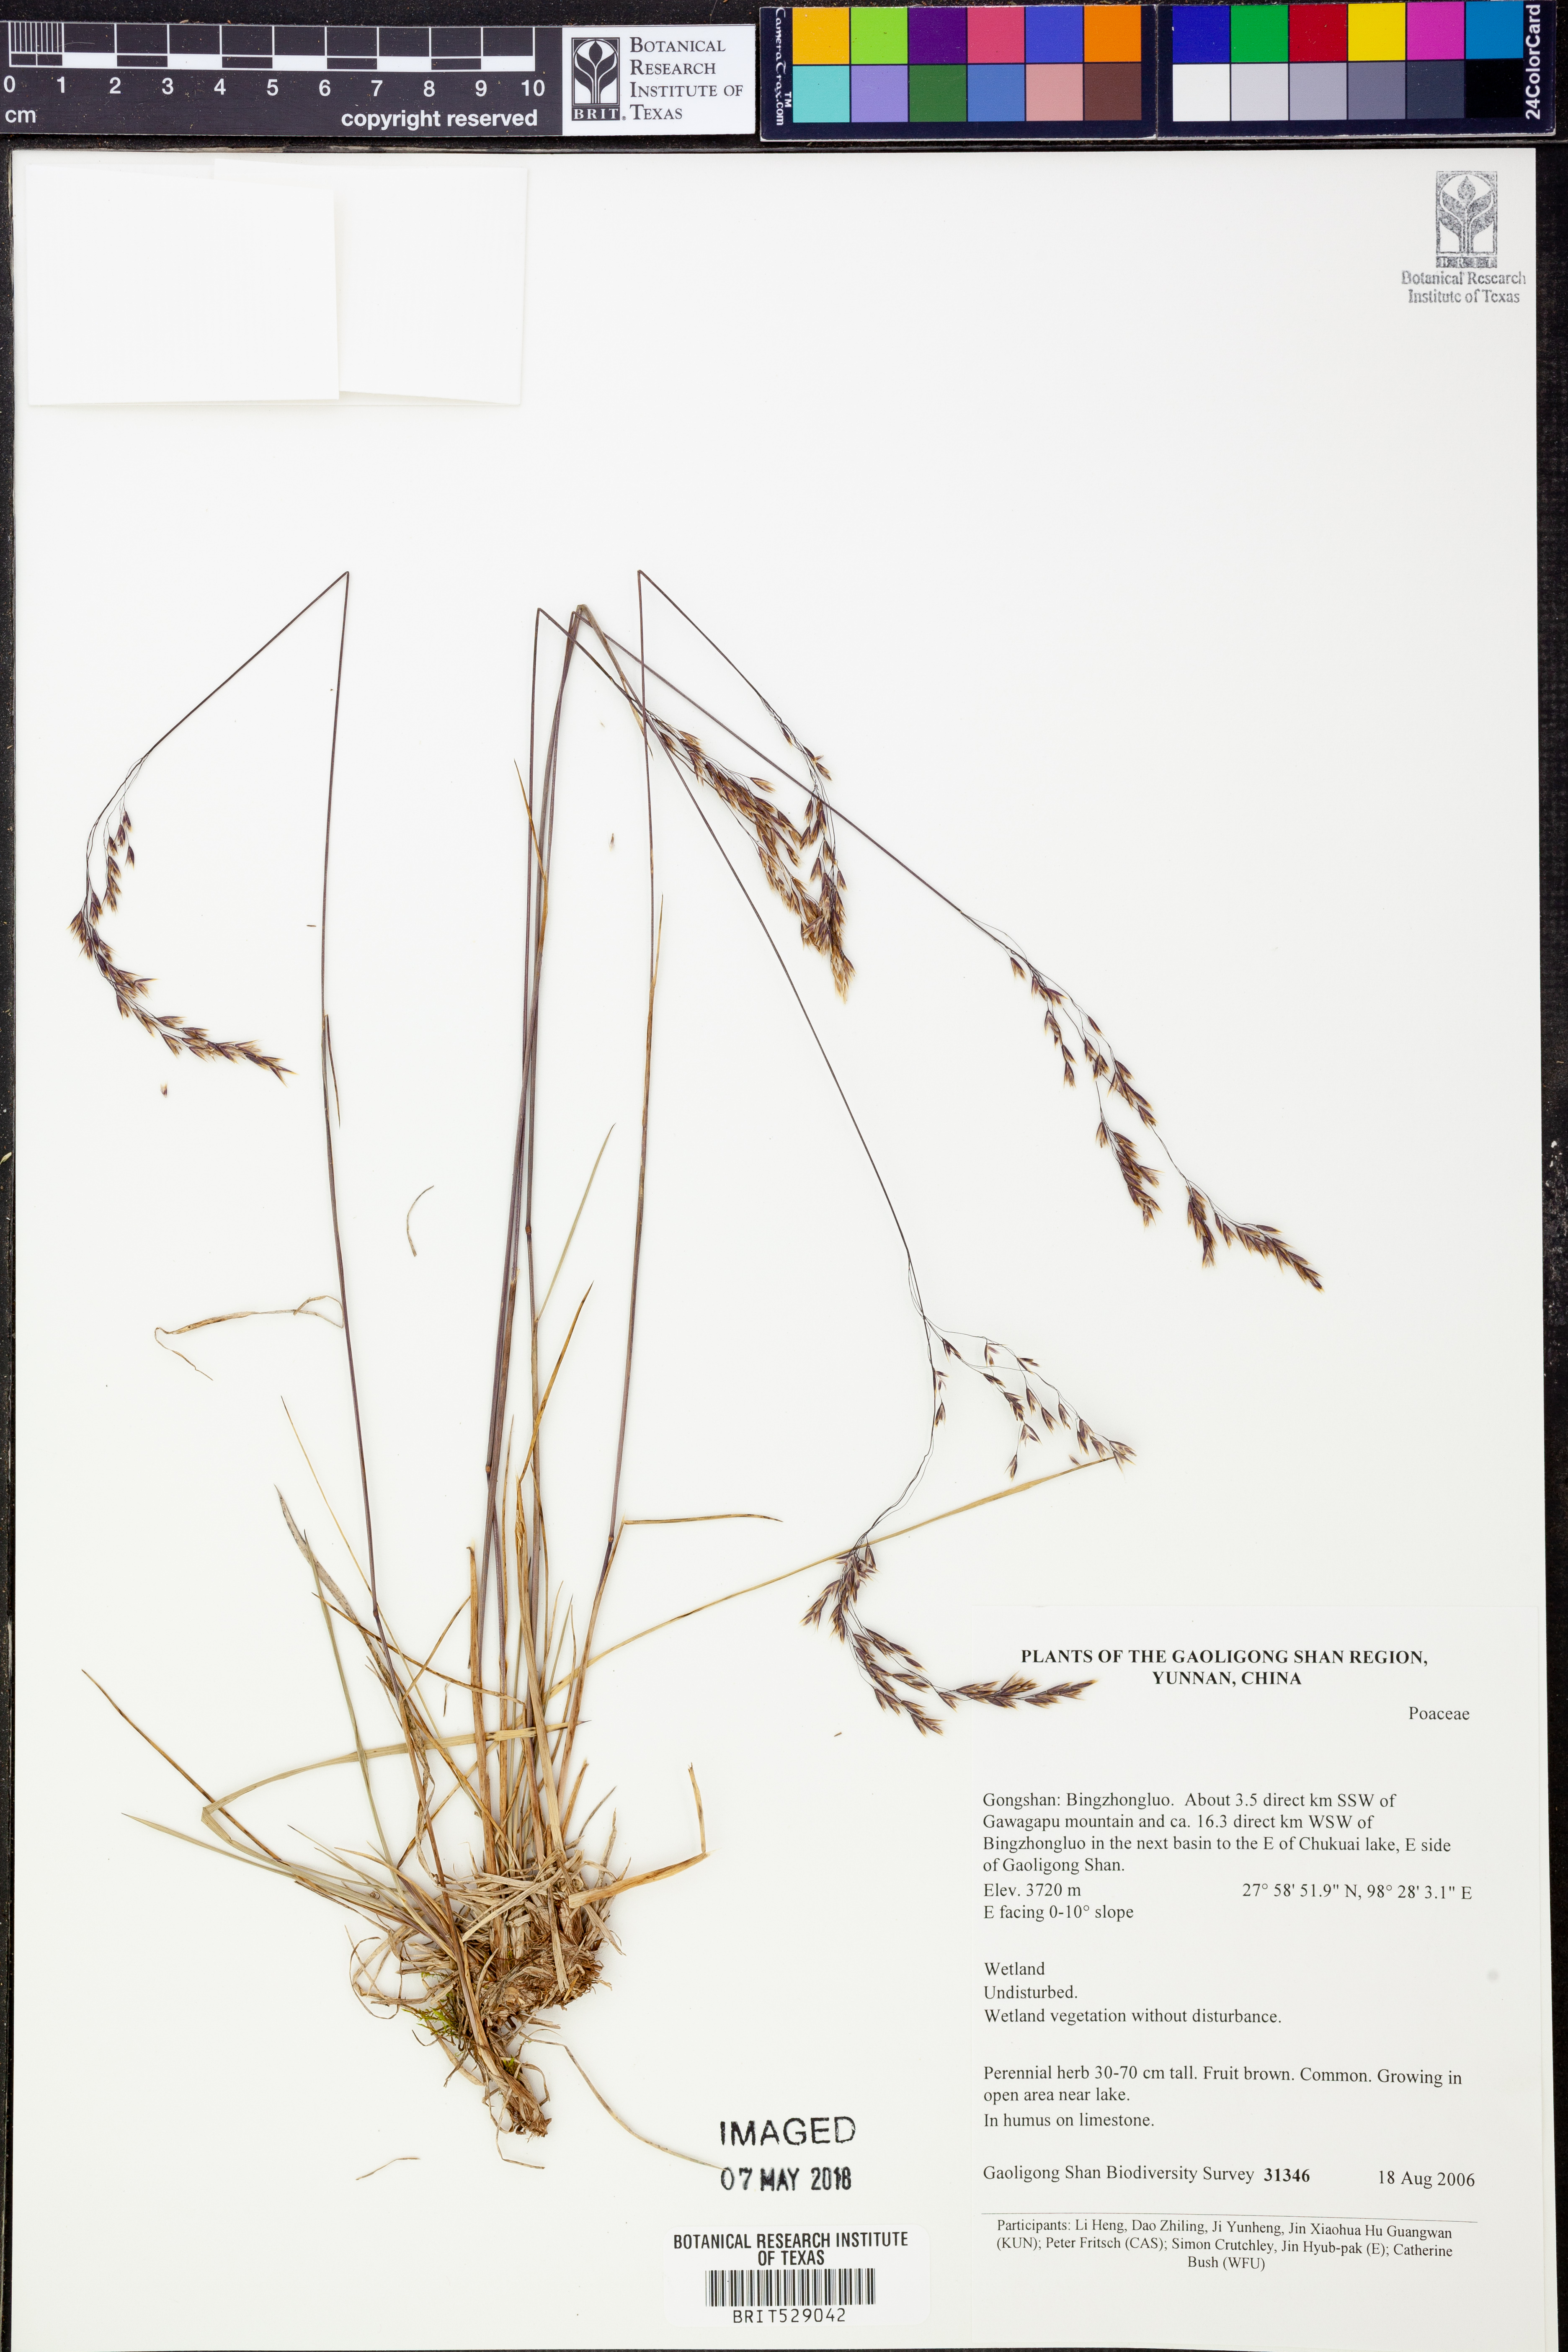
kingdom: Plantae
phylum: Tracheophyta
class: Liliopsida
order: Poales
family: Poaceae
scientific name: Poaceae
